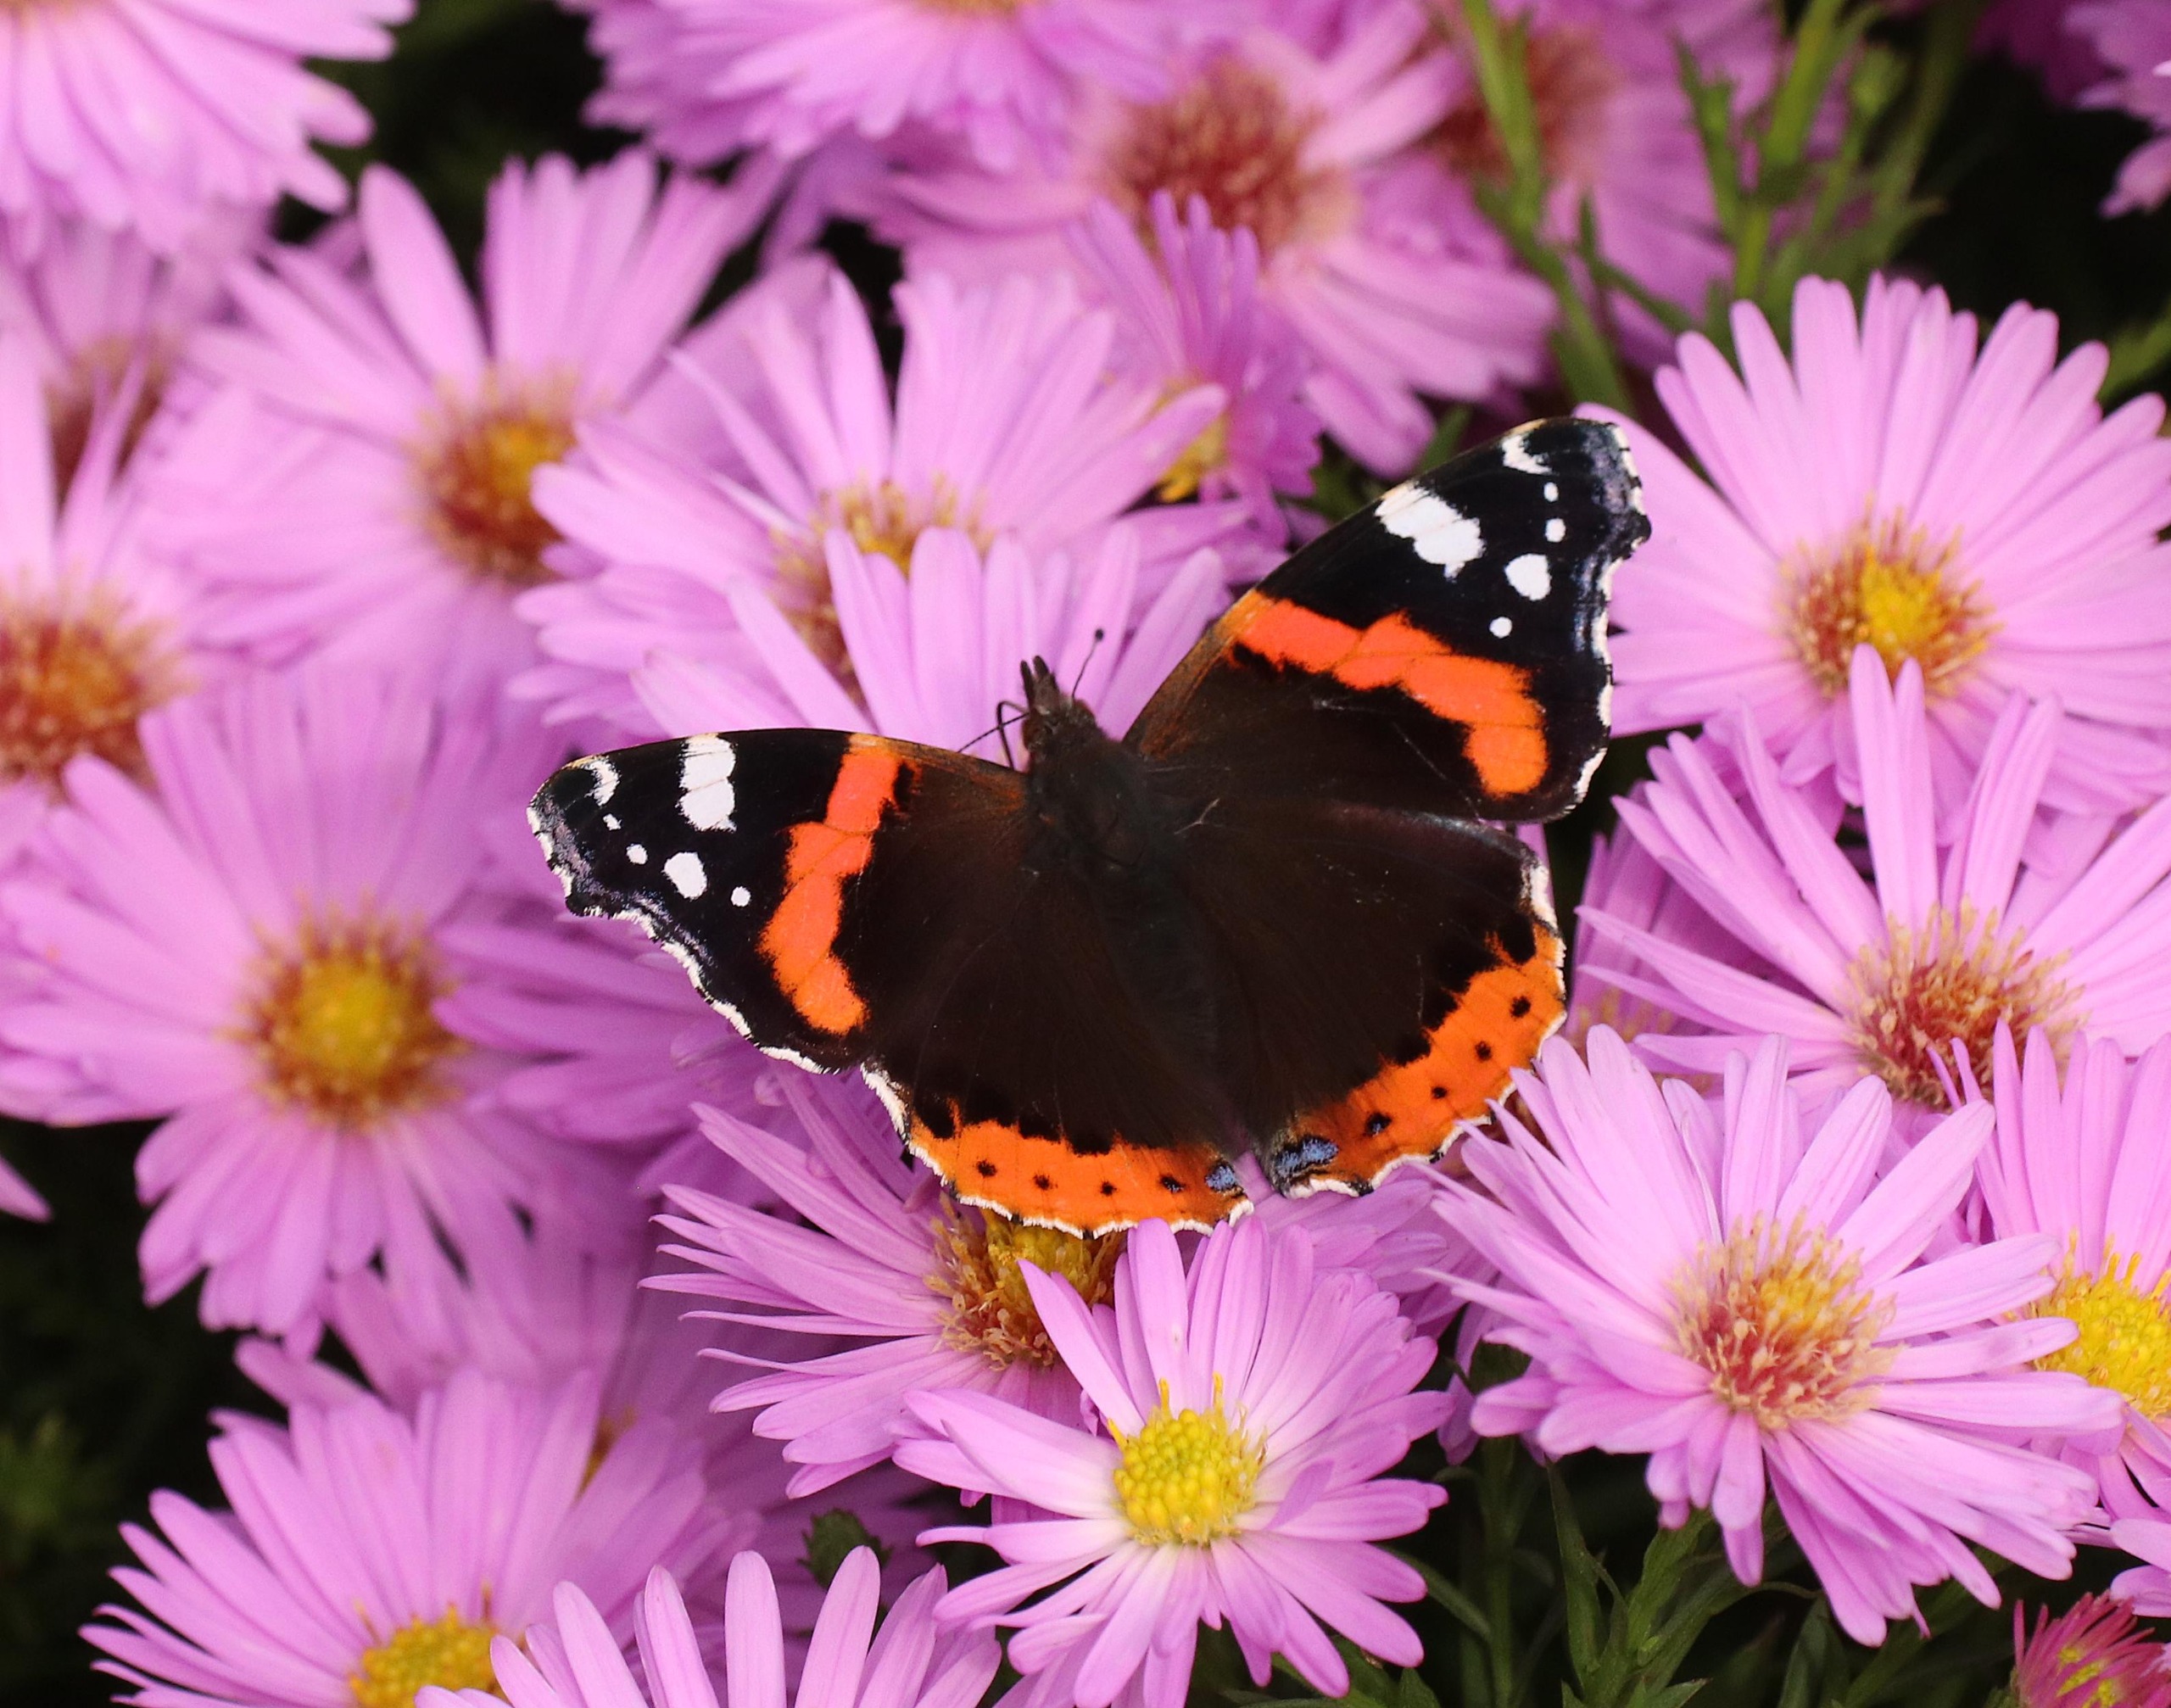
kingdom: Animalia
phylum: Arthropoda
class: Insecta
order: Lepidoptera
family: Nymphalidae
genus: Vanessa
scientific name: Vanessa atalanta
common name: Admiral
